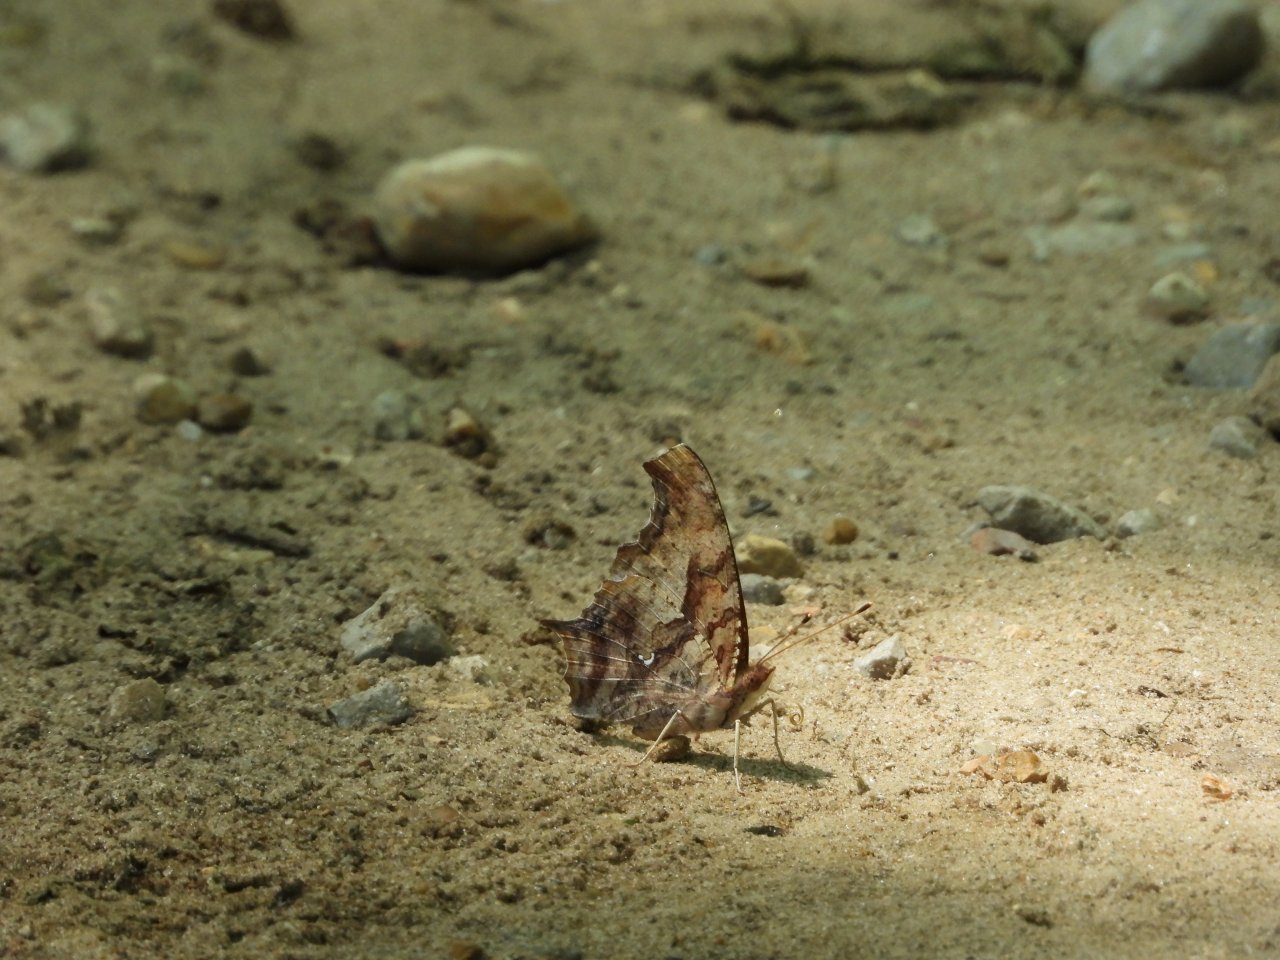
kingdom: Animalia
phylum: Arthropoda
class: Insecta
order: Lepidoptera
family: Nymphalidae
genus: Polygonia
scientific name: Polygonia interrogationis
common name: Question Mark
